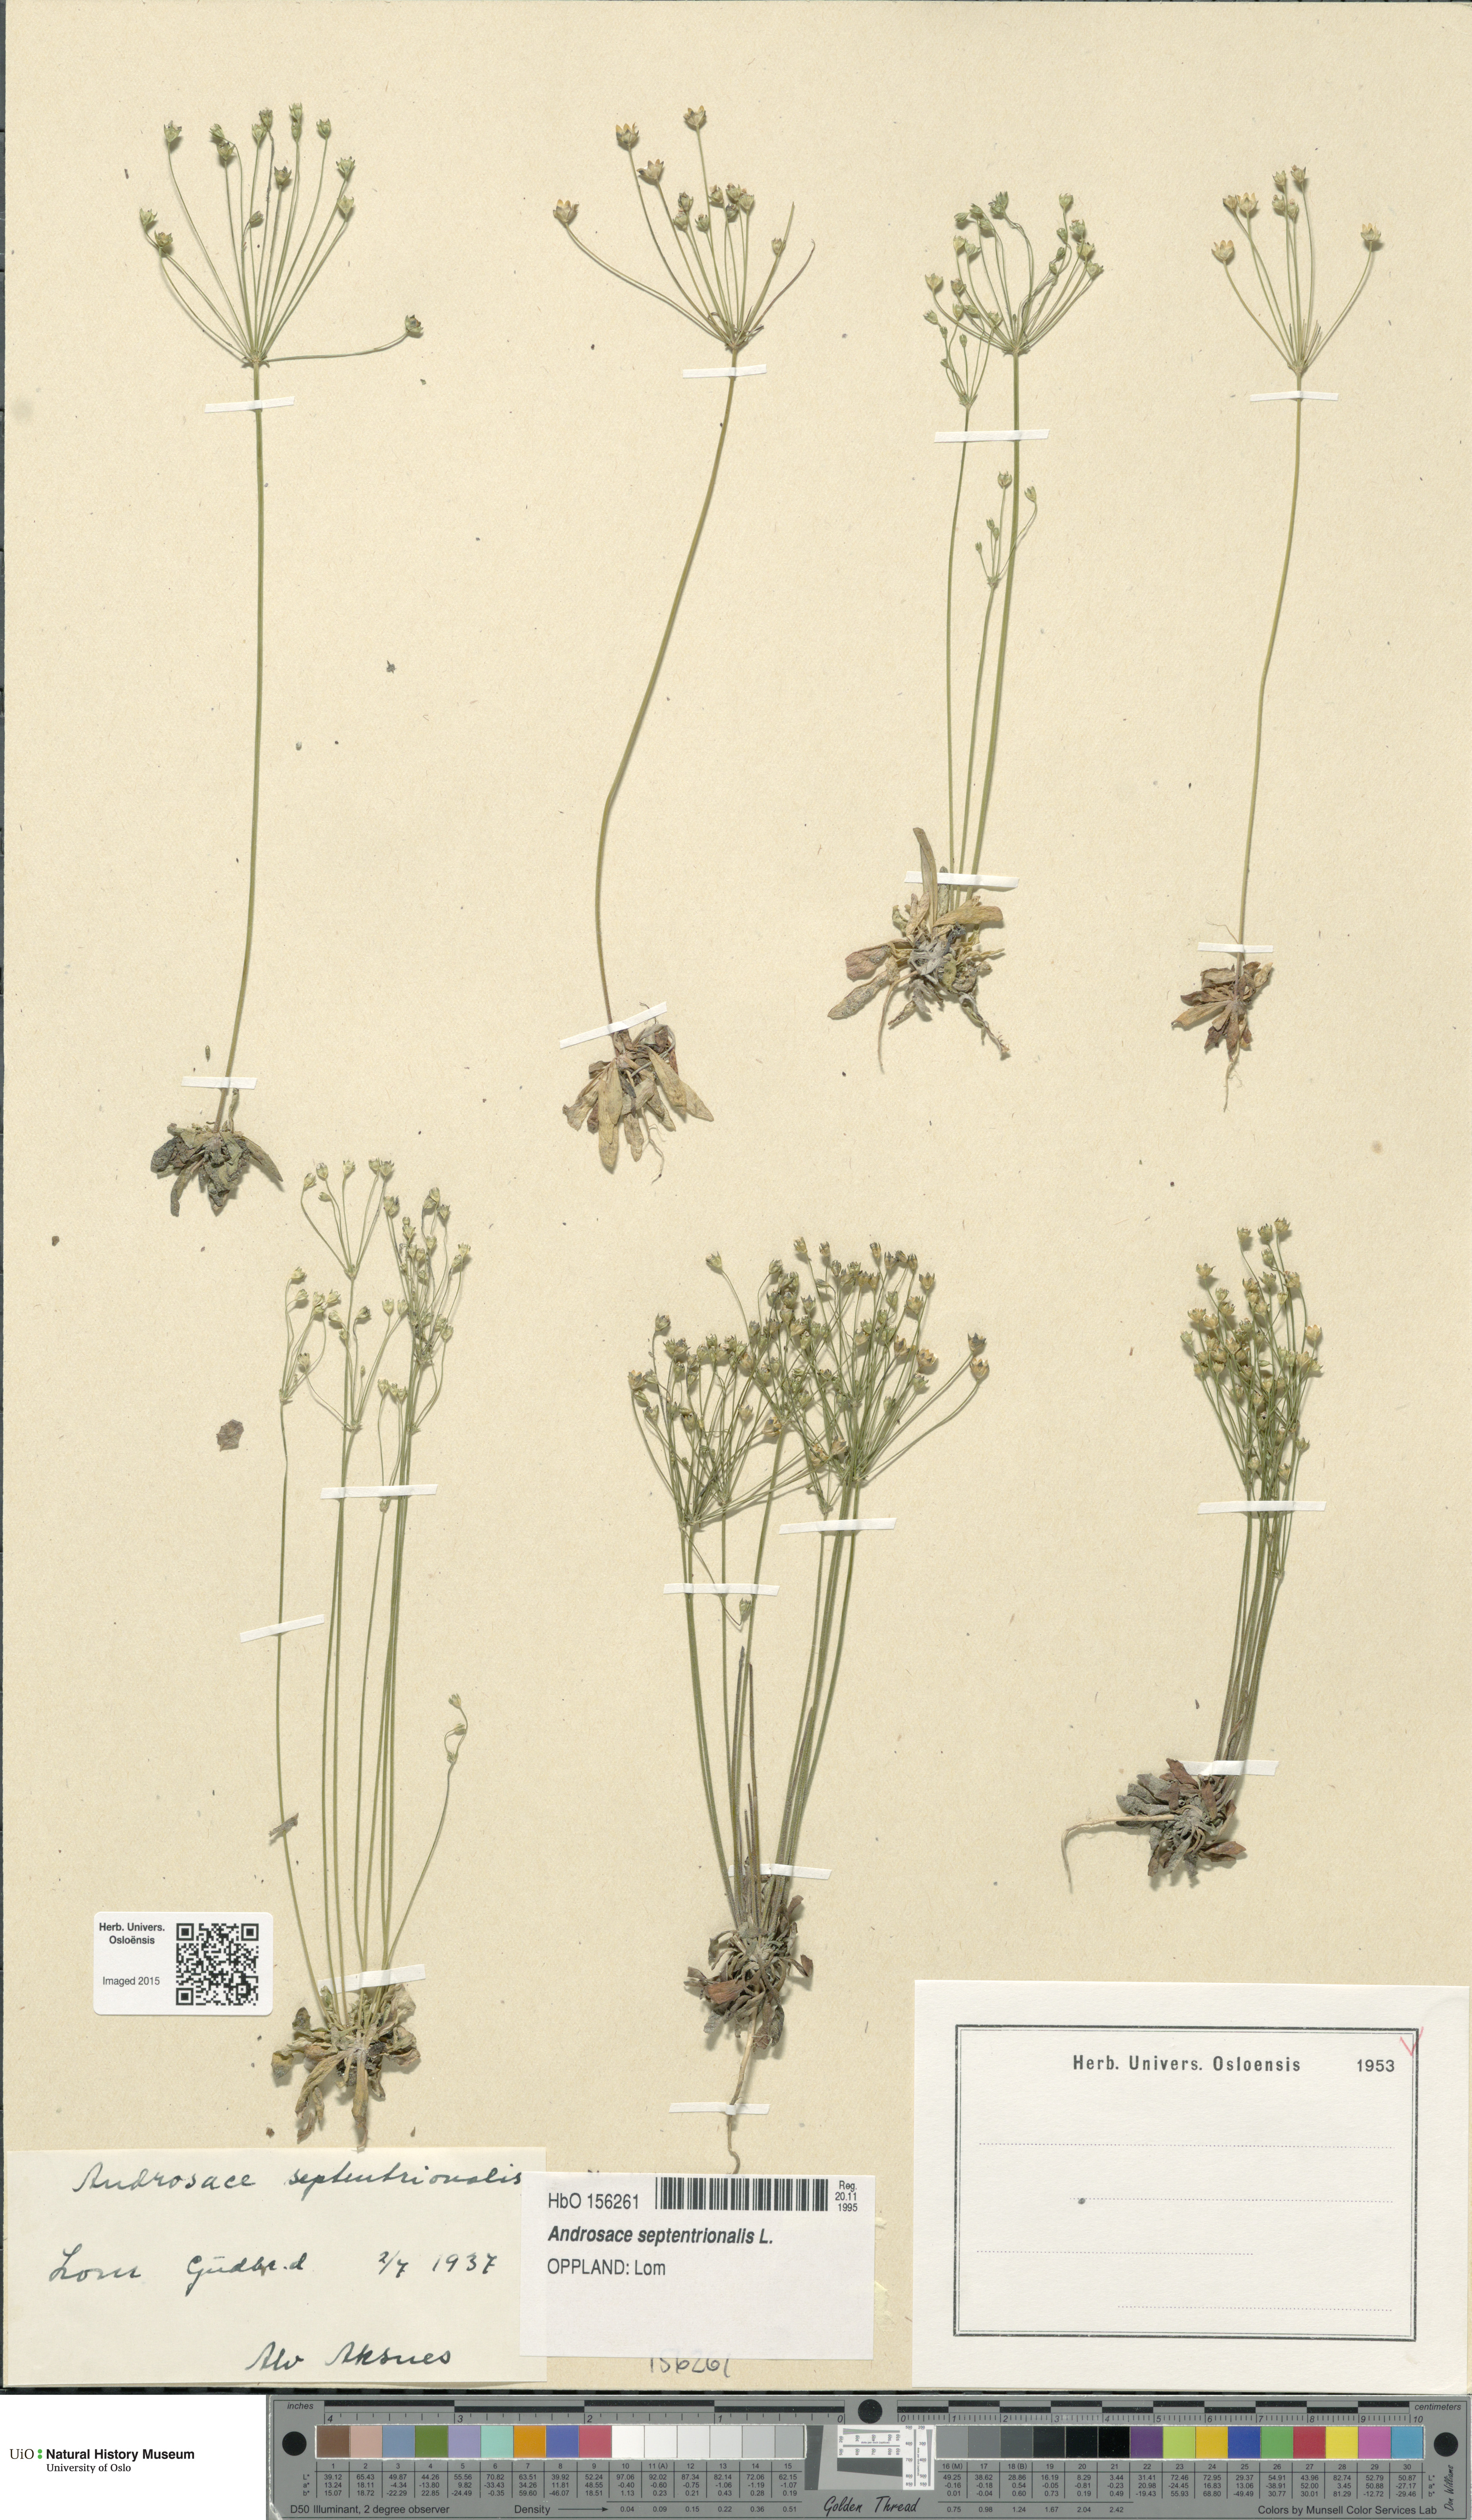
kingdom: Plantae
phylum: Tracheophyta
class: Magnoliopsida
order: Ericales
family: Primulaceae
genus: Androsace
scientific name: Androsace septentrionalis
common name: Hairy northern fairy-candelabra
